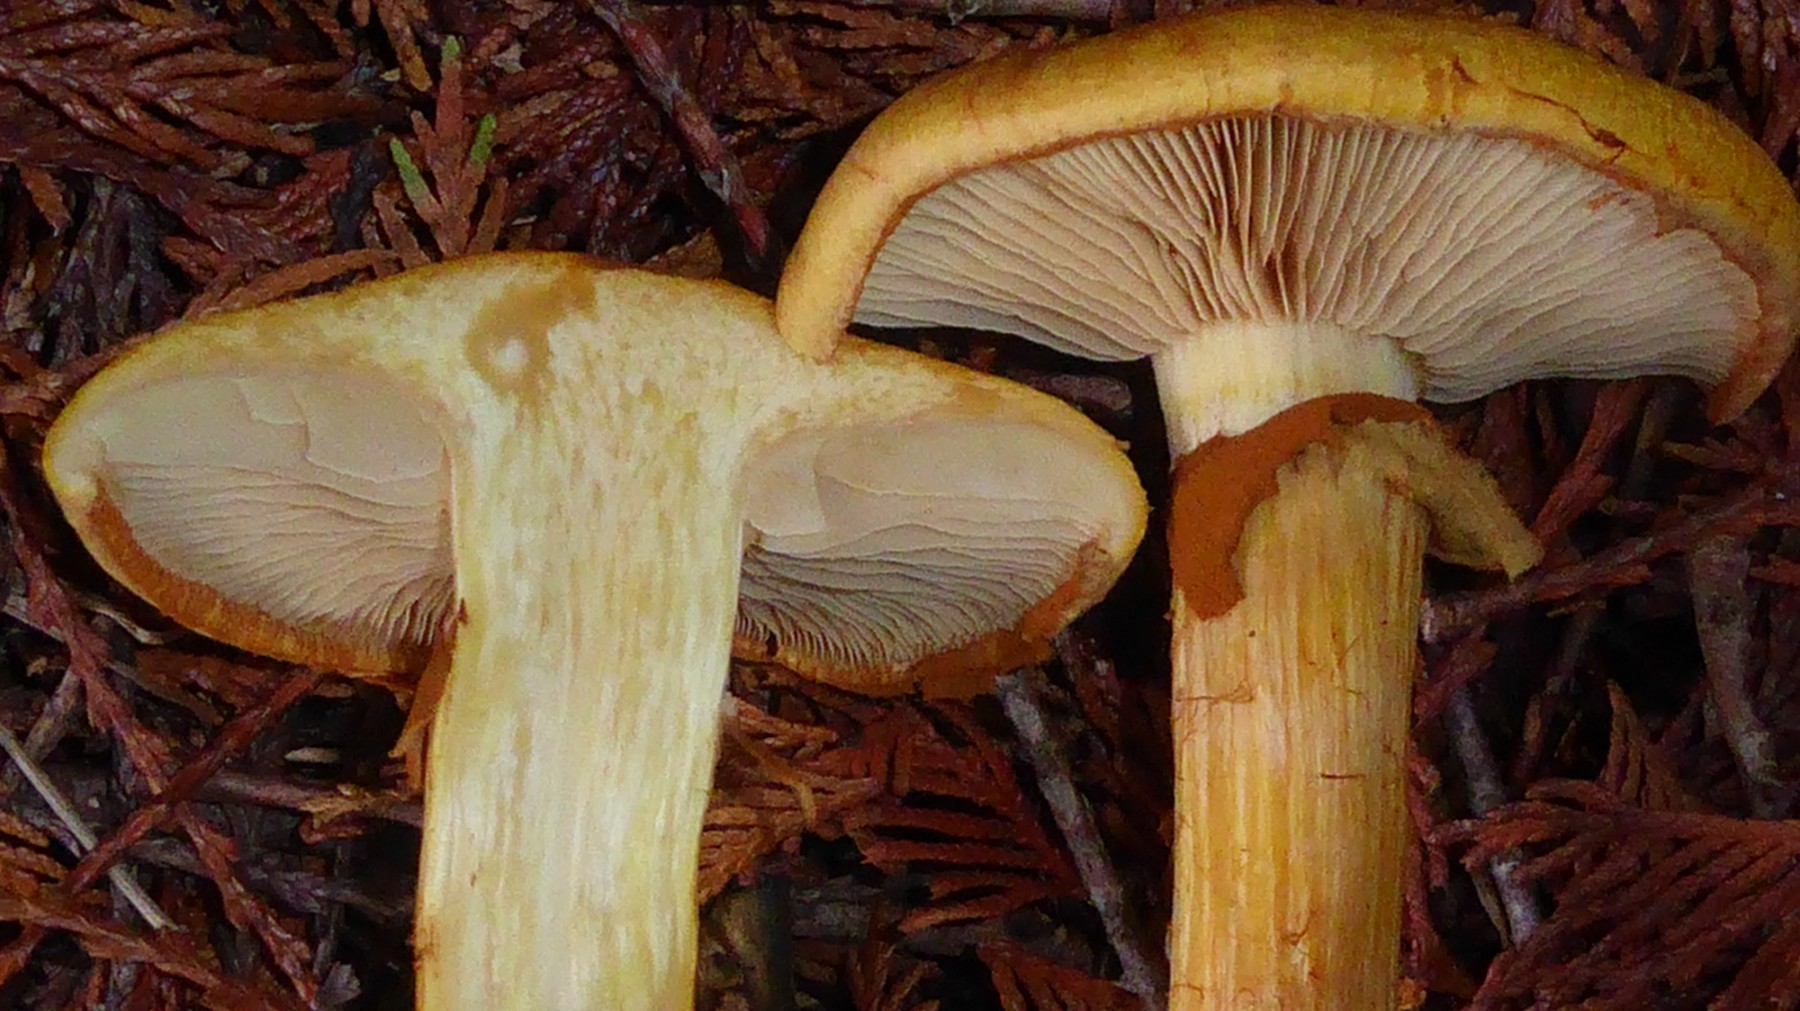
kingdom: Fungi
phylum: Basidiomycota
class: Agaricomycetes
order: Agaricales
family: Hymenogastraceae
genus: Gymnopilus
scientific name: Gymnopilus spectabilis
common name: fibret flammehat
